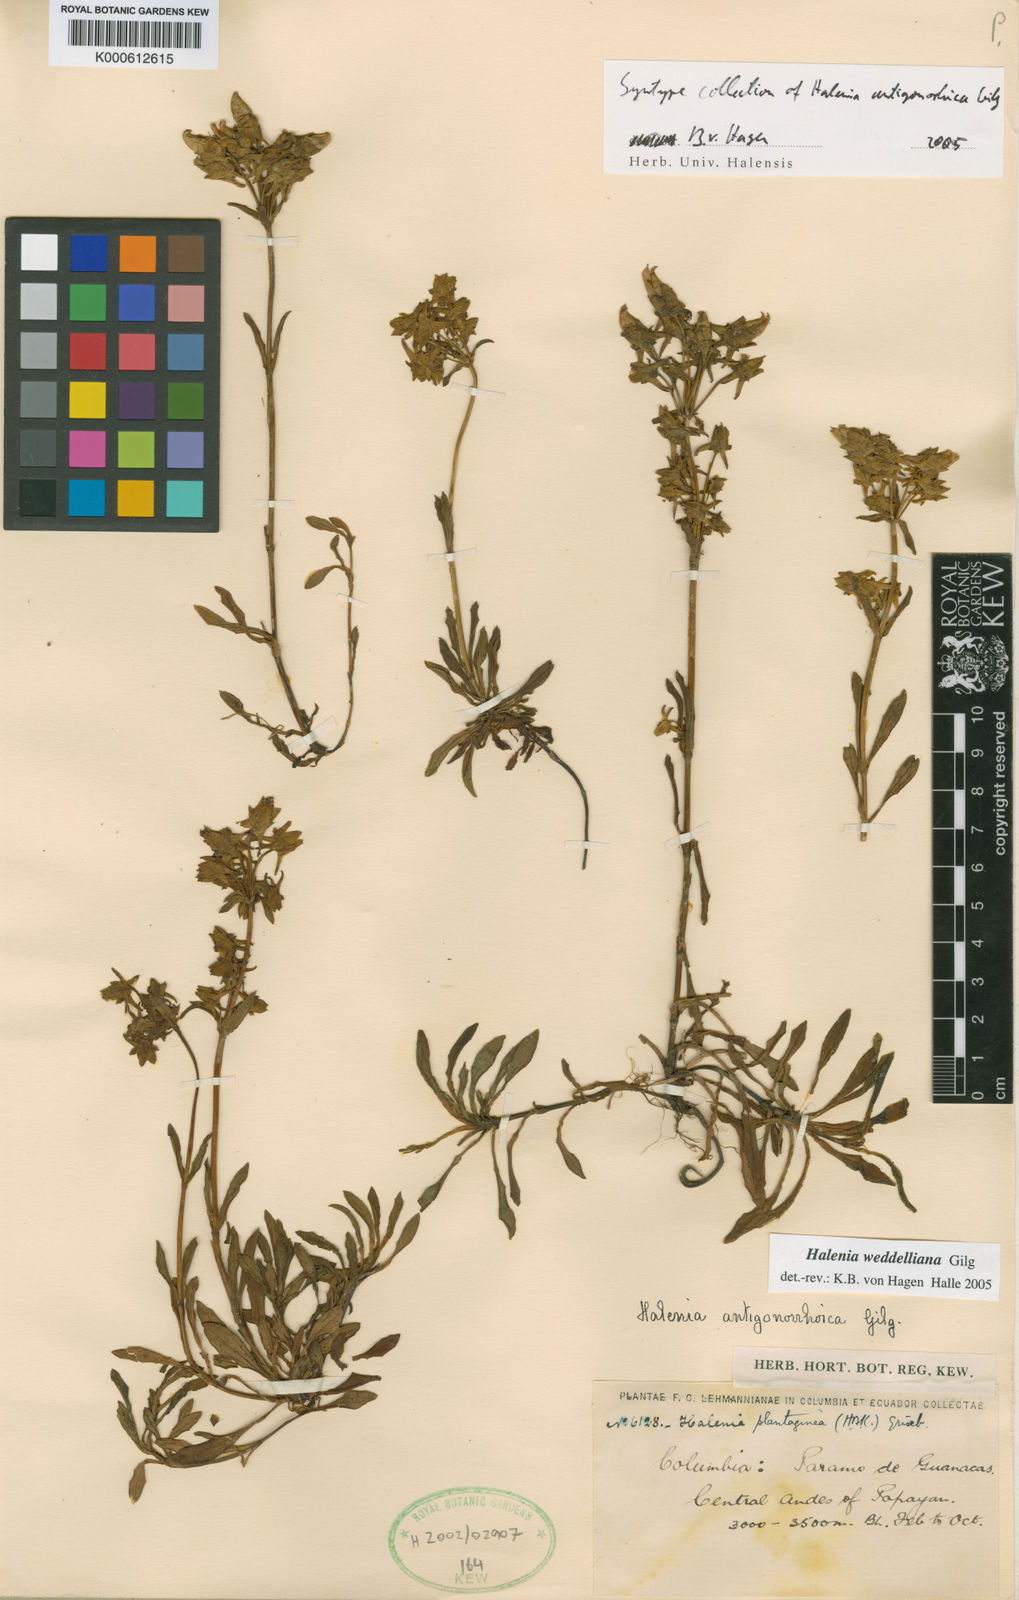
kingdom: Plantae
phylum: Tracheophyta
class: Magnoliopsida
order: Gentianales
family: Gentianaceae
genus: Halenia
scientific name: Halenia weddelliana
